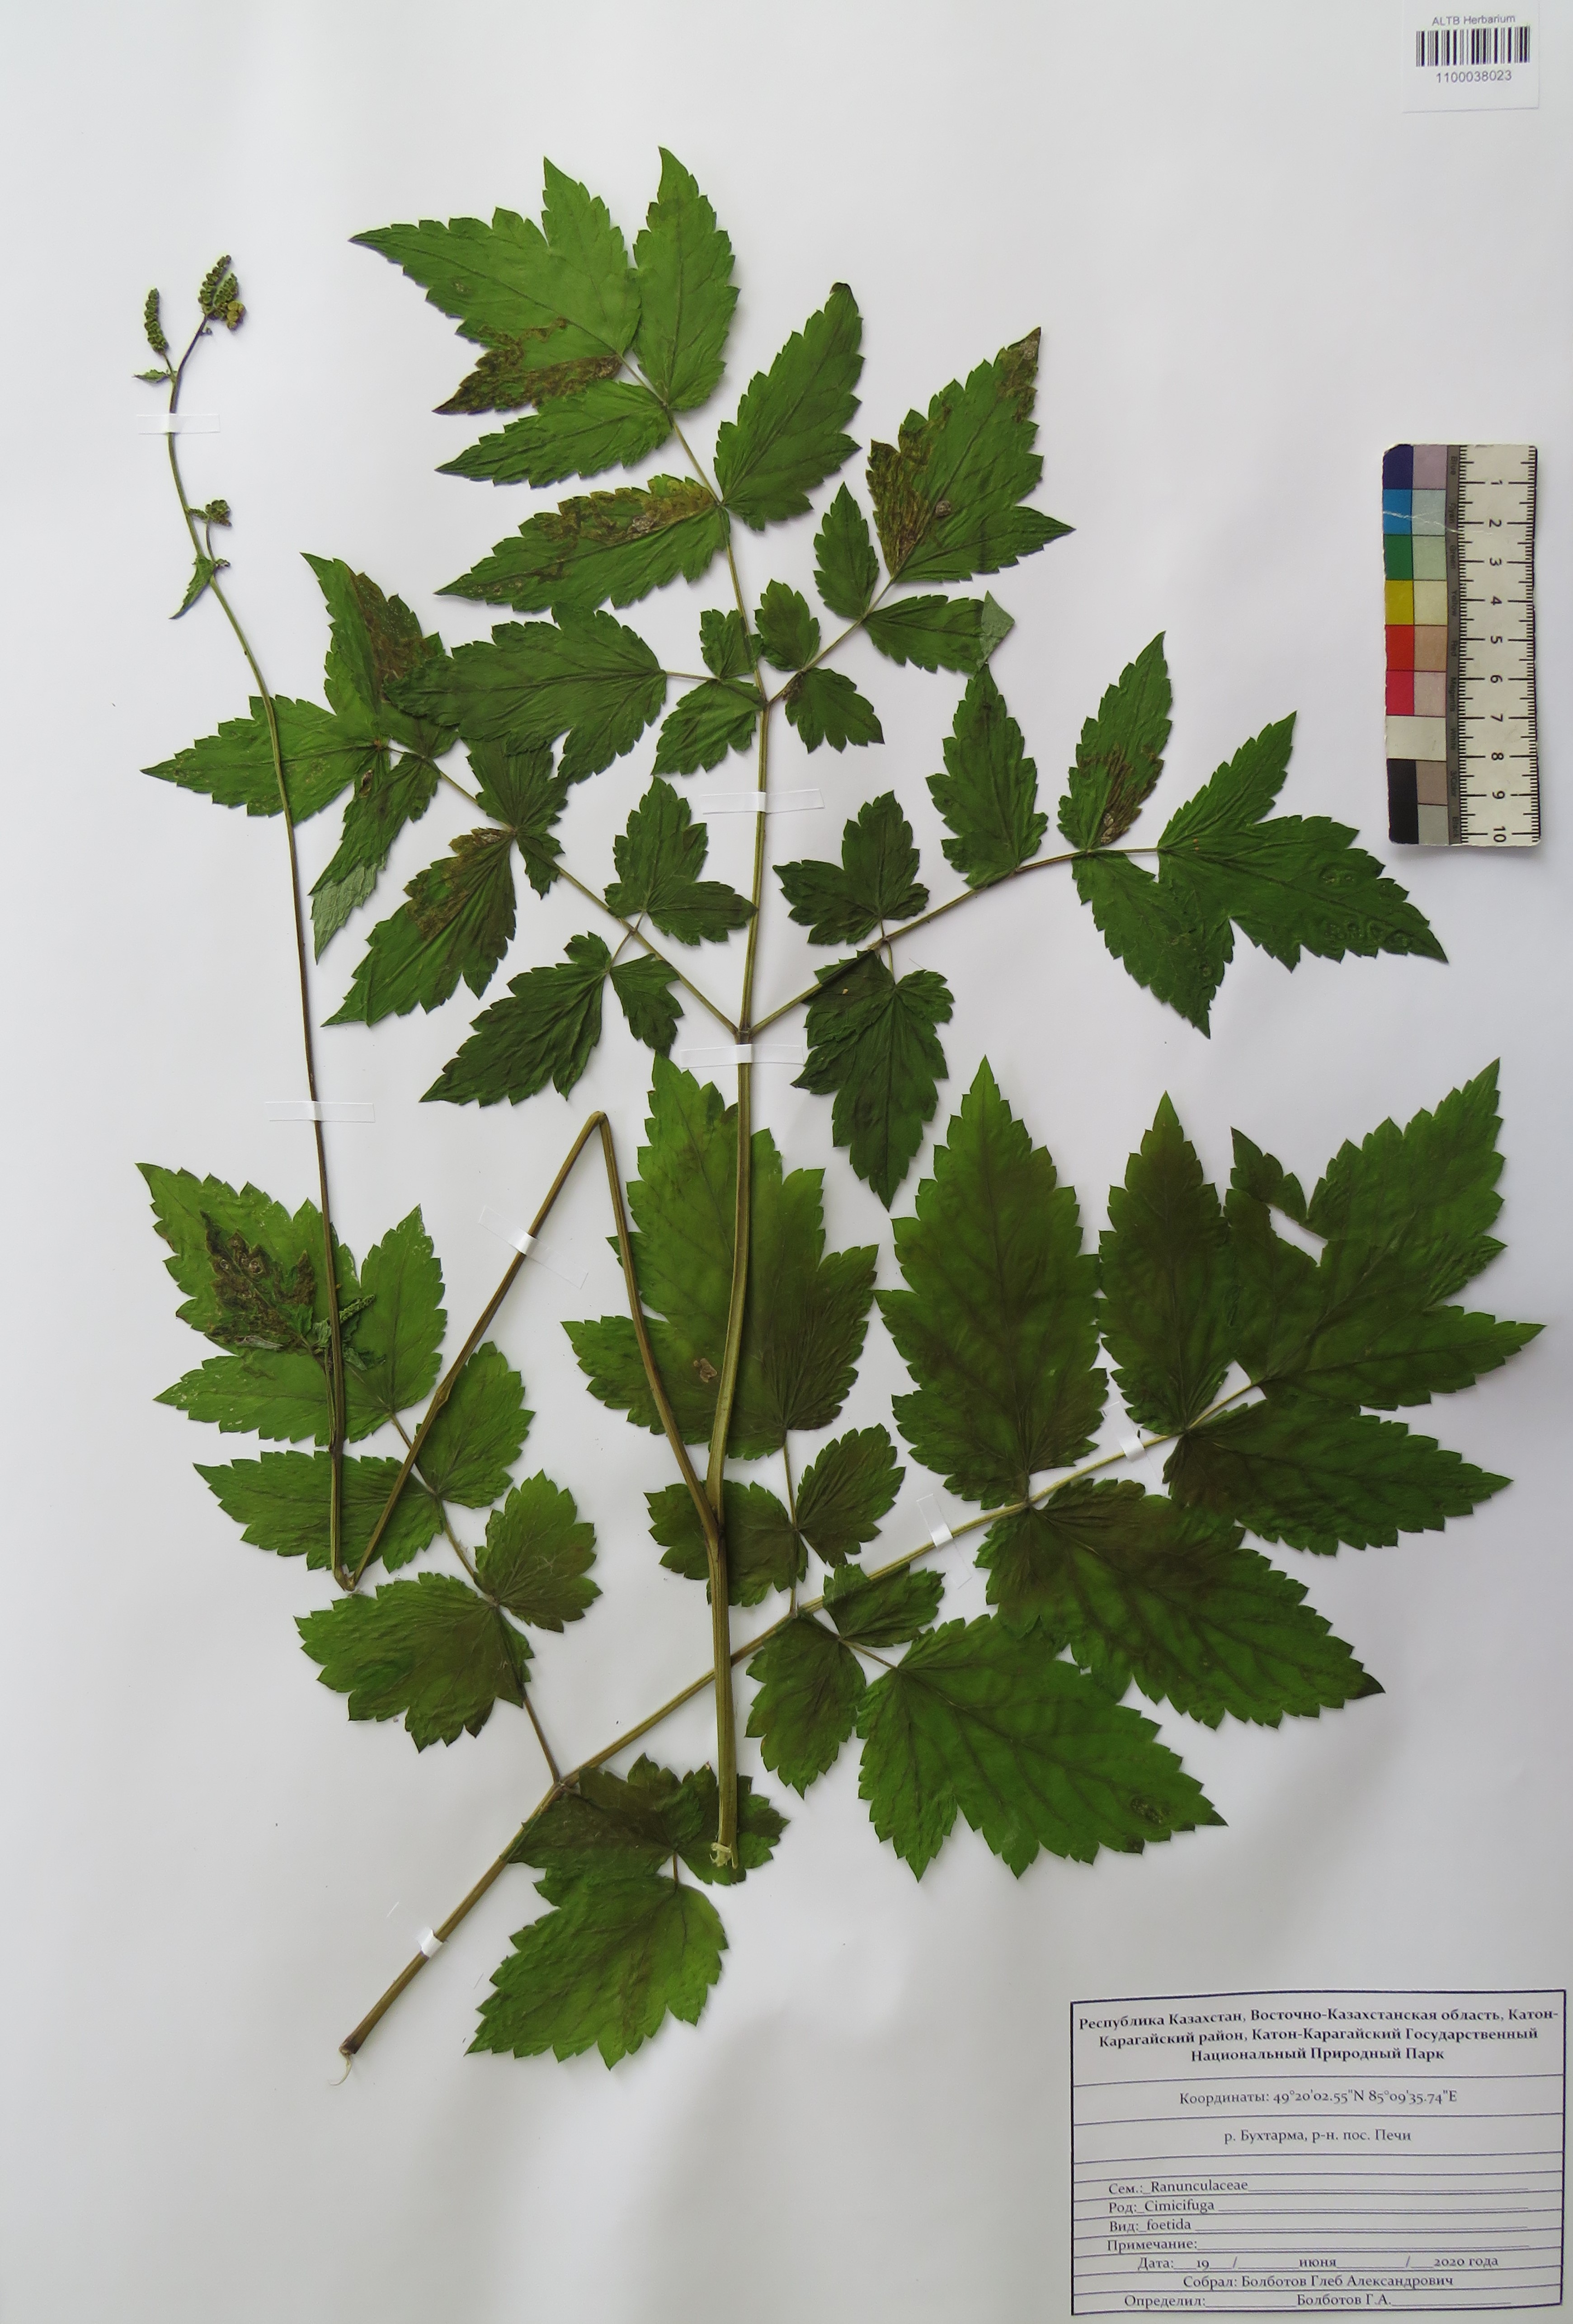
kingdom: Plantae
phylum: Tracheophyta
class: Magnoliopsida
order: Ranunculales
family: Ranunculaceae
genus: Actaea
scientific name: Actaea cimicifuga
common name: Chinese cimicifuga
